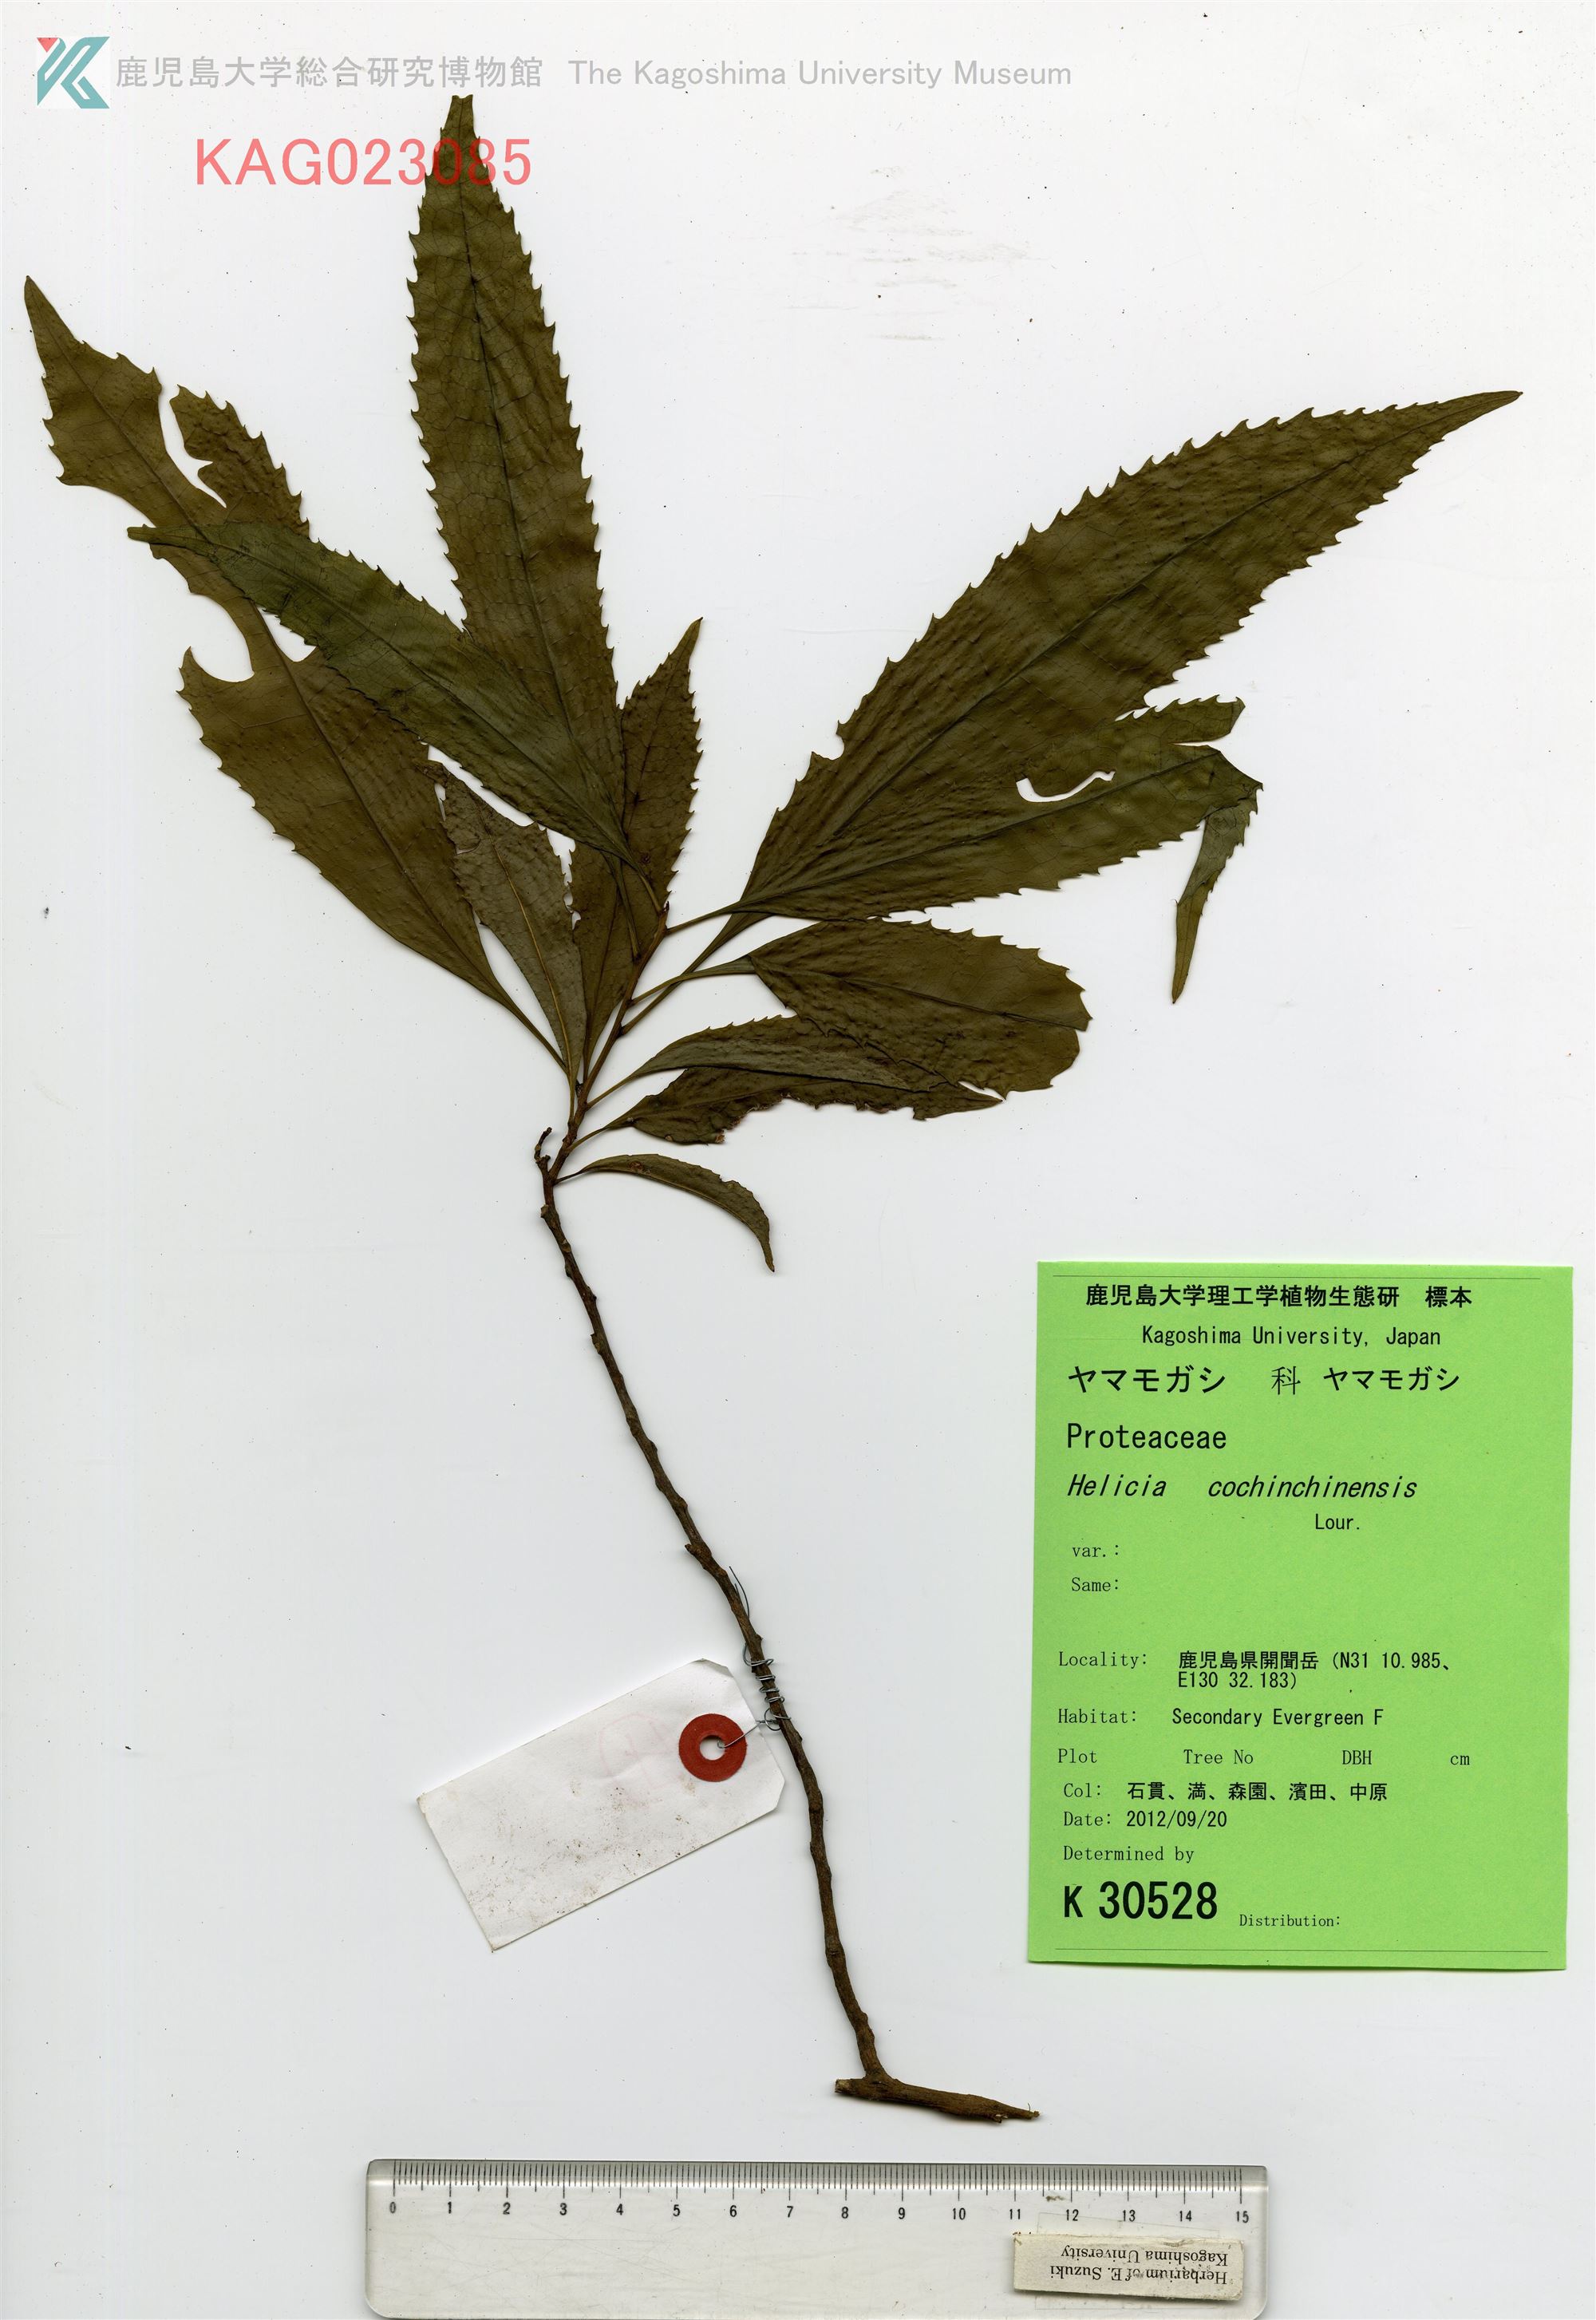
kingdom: Plantae
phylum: Tracheophyta
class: Magnoliopsida
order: Proteales
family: Proteaceae
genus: Helicia
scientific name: Helicia cochinchinensis
